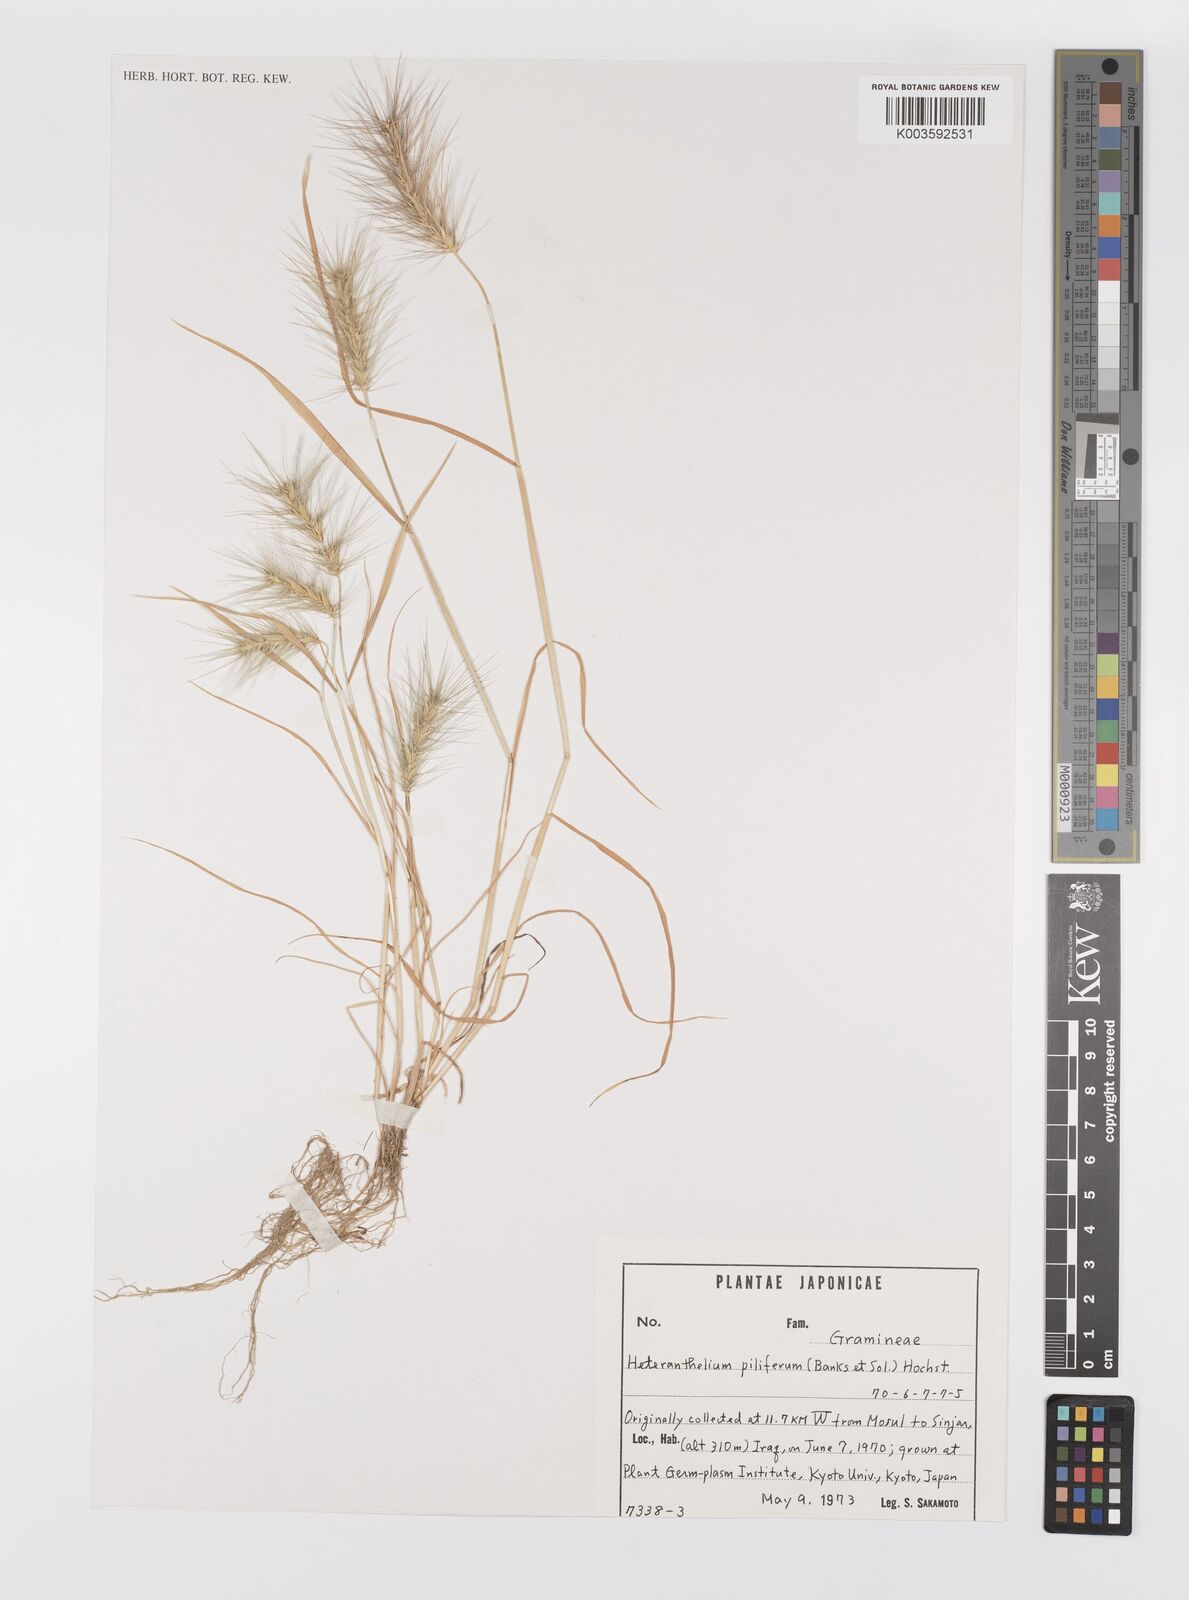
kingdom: Plantae
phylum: Tracheophyta
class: Liliopsida
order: Poales
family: Poaceae
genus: Heteranthelium
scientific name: Heteranthelium piliferum
